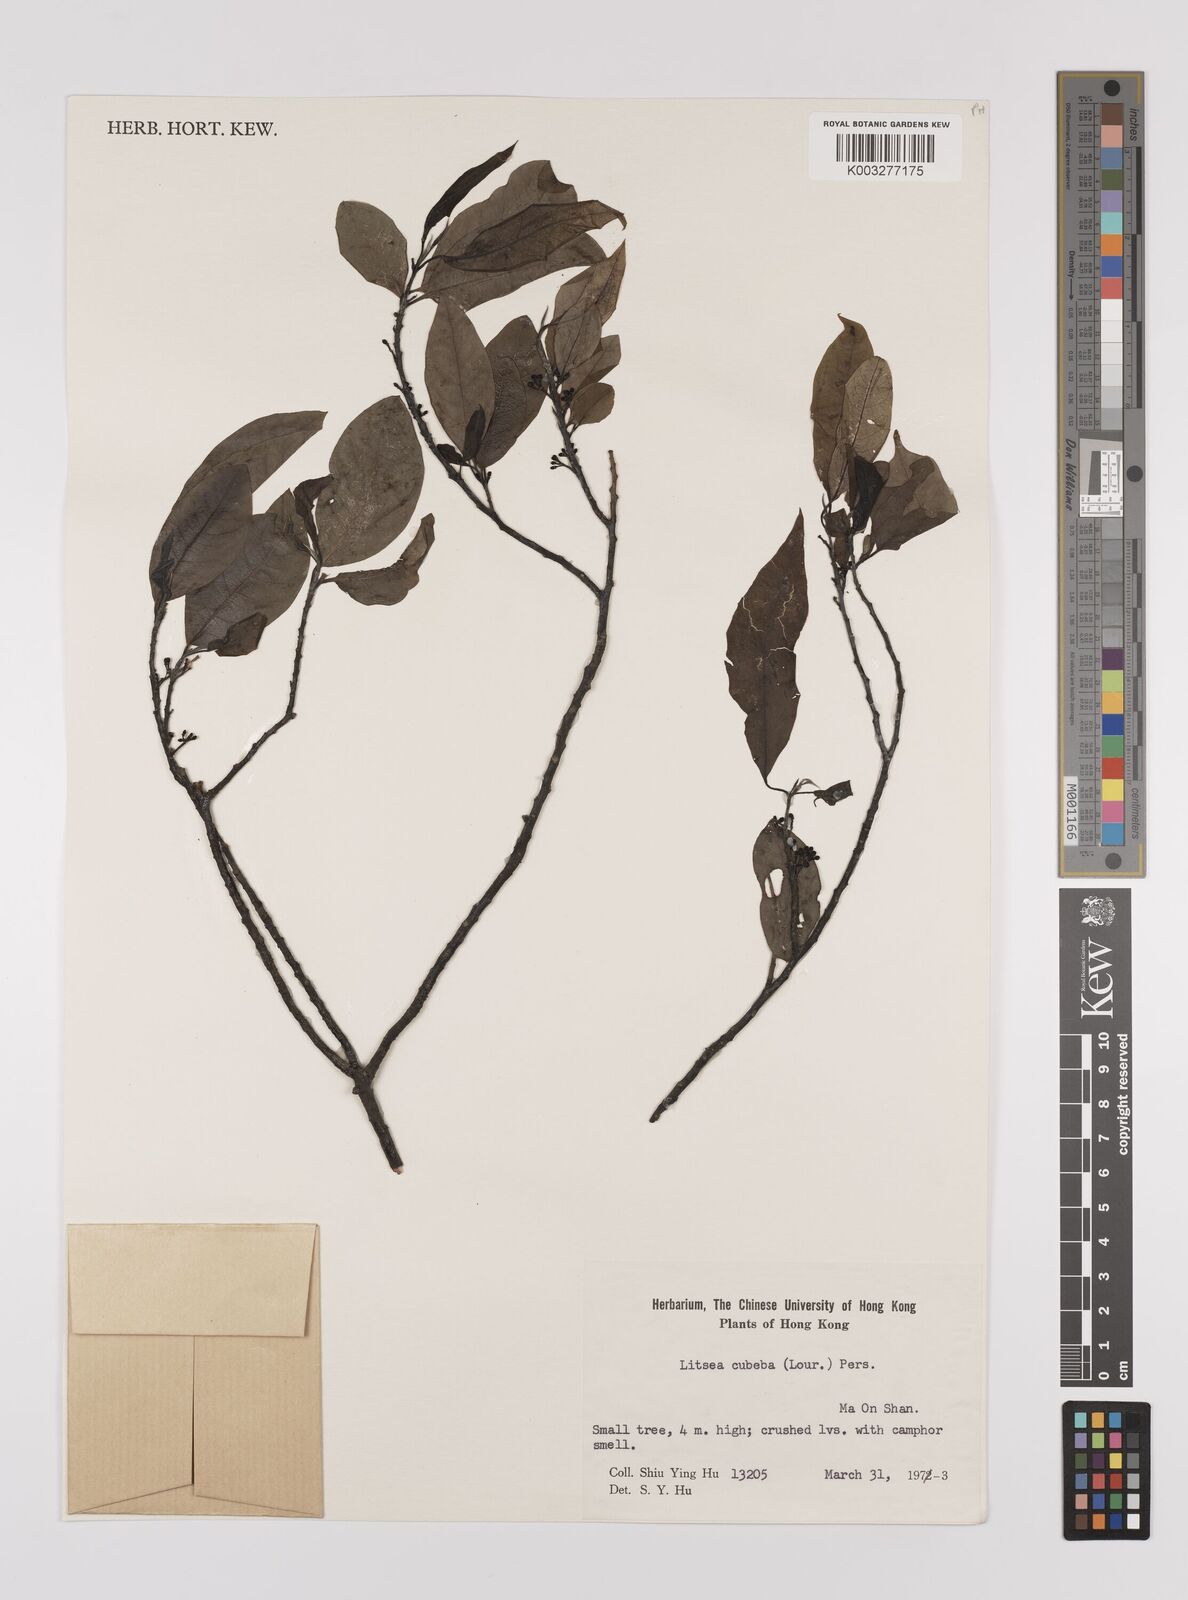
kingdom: Plantae
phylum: Tracheophyta
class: Magnoliopsida
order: Laurales
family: Lauraceae
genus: Litsea
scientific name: Litsea cubeba
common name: Mountain-pepper
